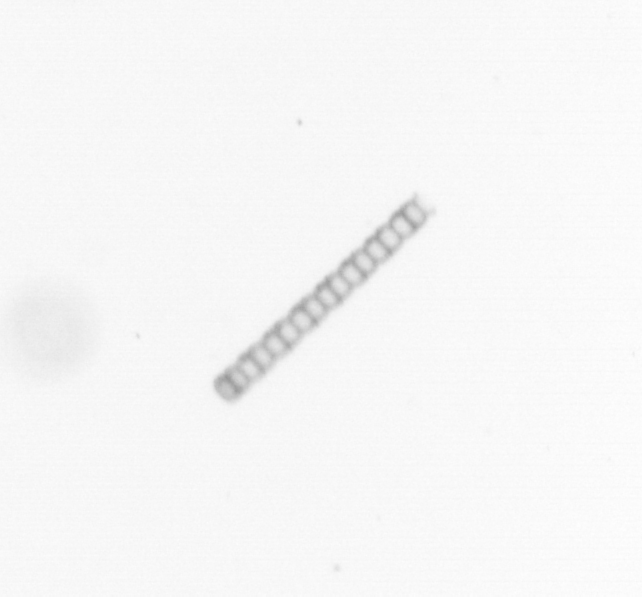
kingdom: Chromista
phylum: Ochrophyta
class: Bacillariophyceae
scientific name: Bacillariophyceae
